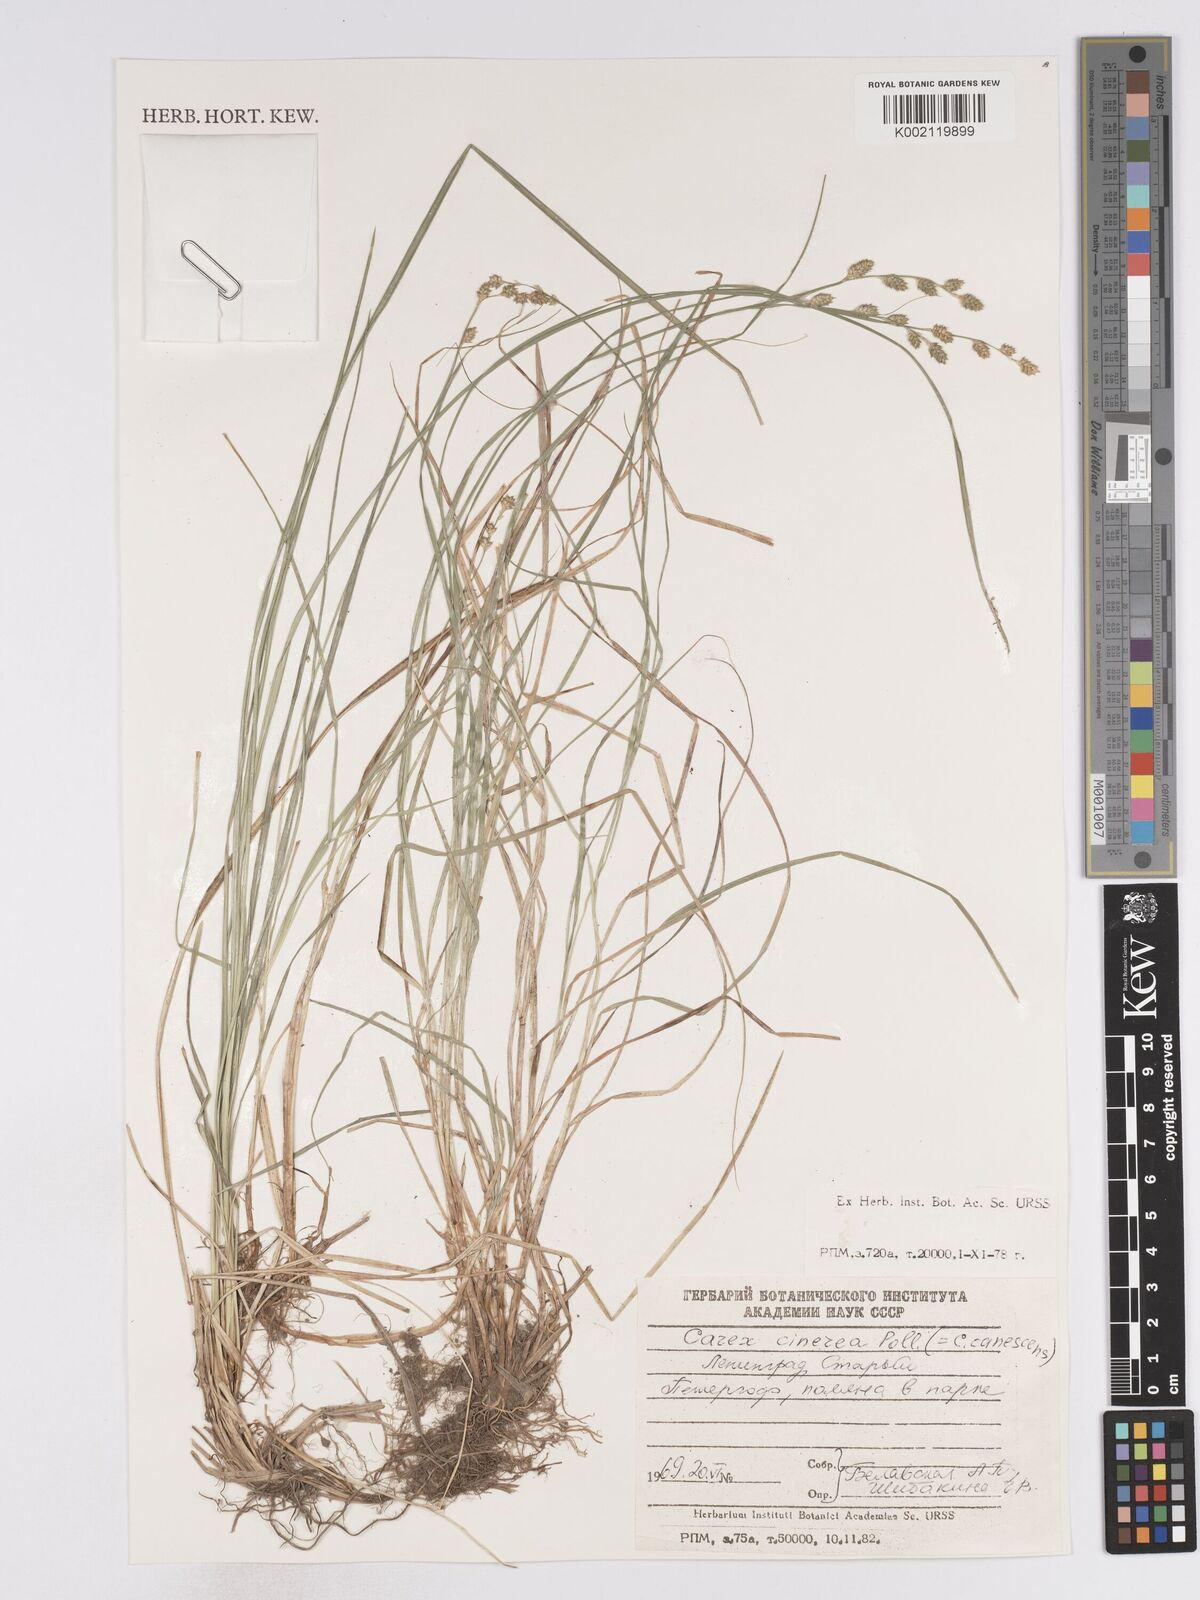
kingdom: Plantae
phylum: Tracheophyta
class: Liliopsida
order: Poales
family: Cyperaceae
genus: Carex
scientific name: Carex lapponica
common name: Lapland sedge
